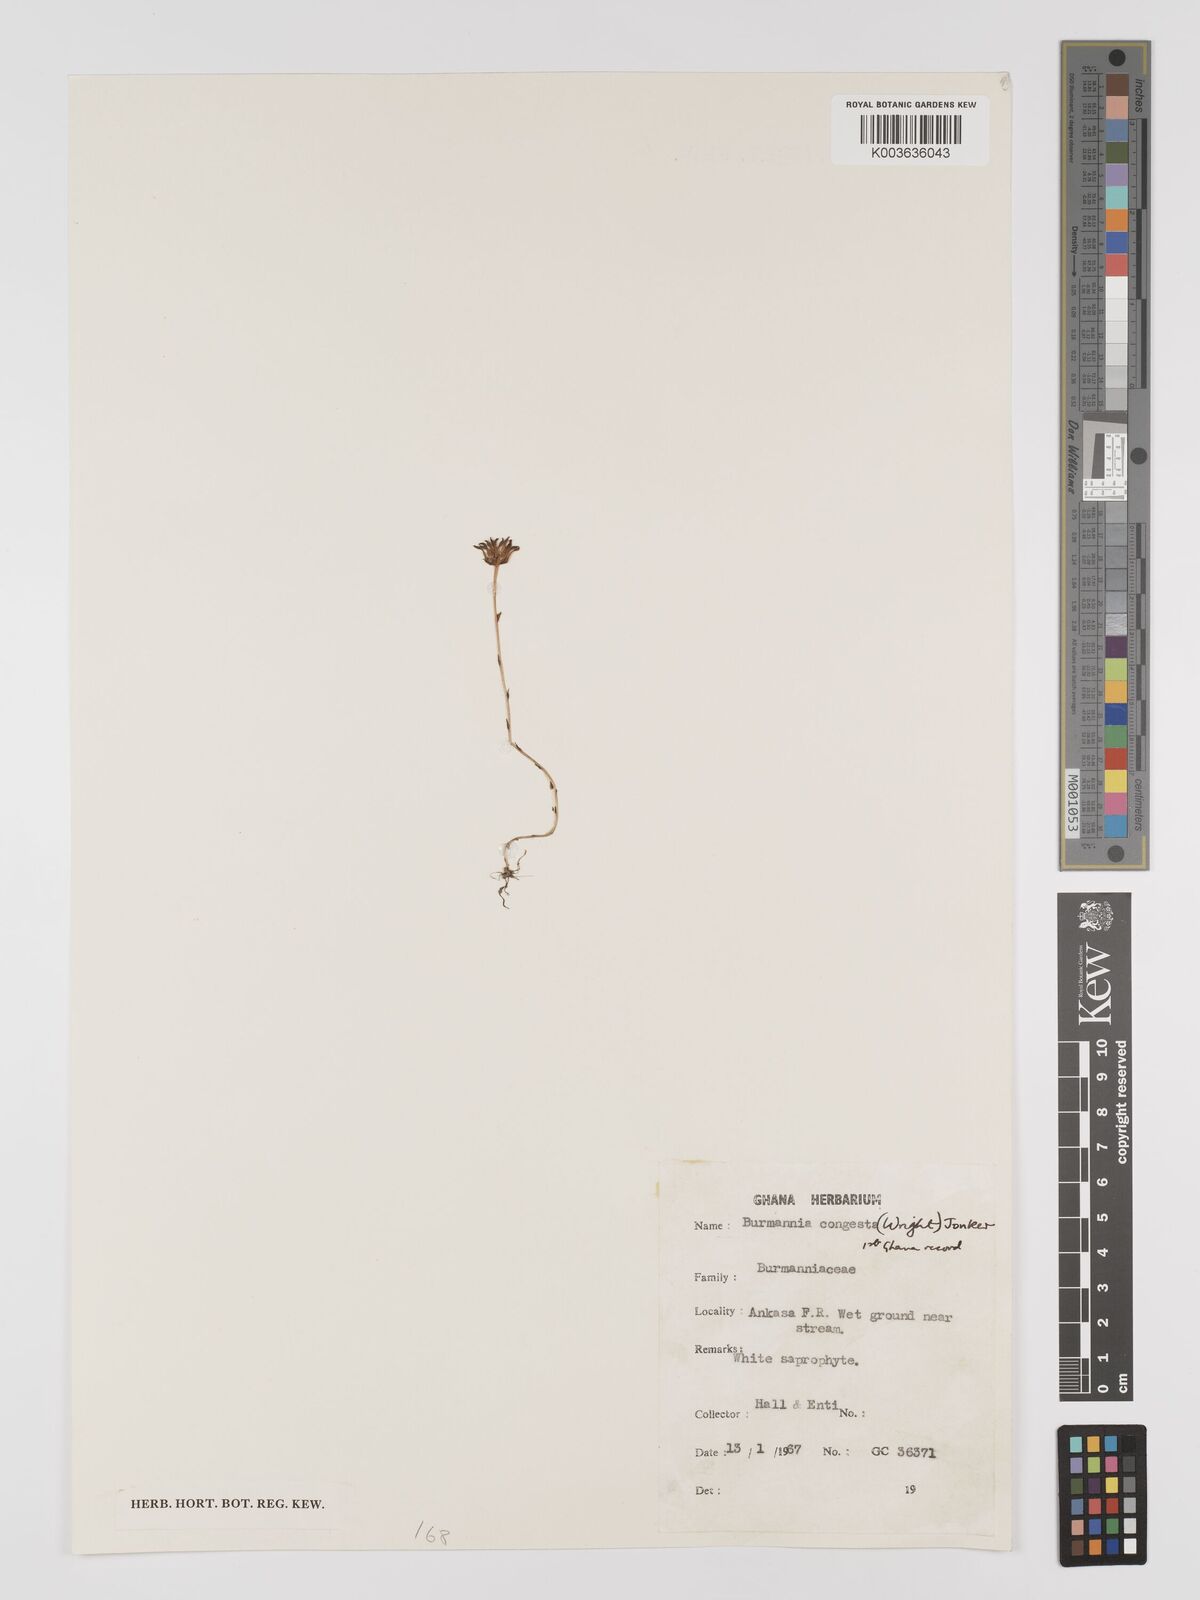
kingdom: Plantae
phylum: Tracheophyta
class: Liliopsida
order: Dioscoreales
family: Burmanniaceae
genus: Campylosiphon
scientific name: Campylosiphon congestus
